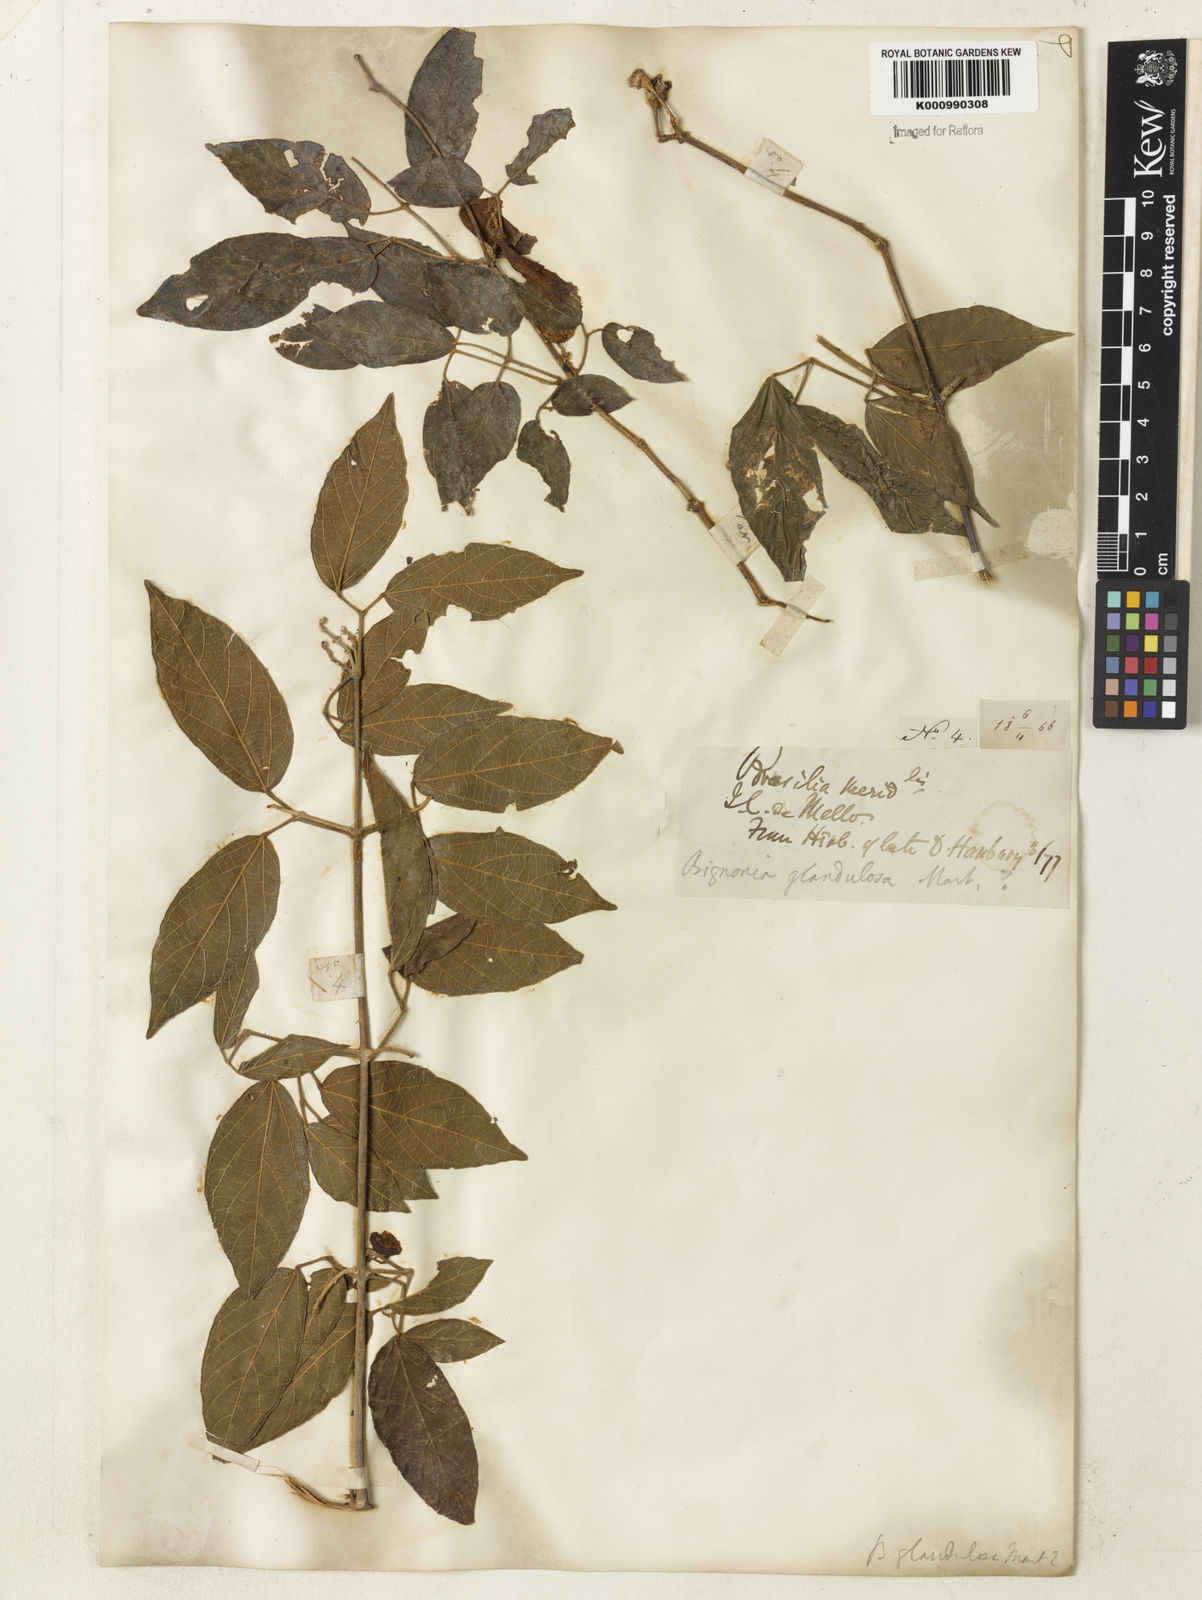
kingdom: Plantae
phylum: Tracheophyta
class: Magnoliopsida
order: Lamiales
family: Bignoniaceae
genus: Stizophyllum
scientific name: Stizophyllum perforatum
